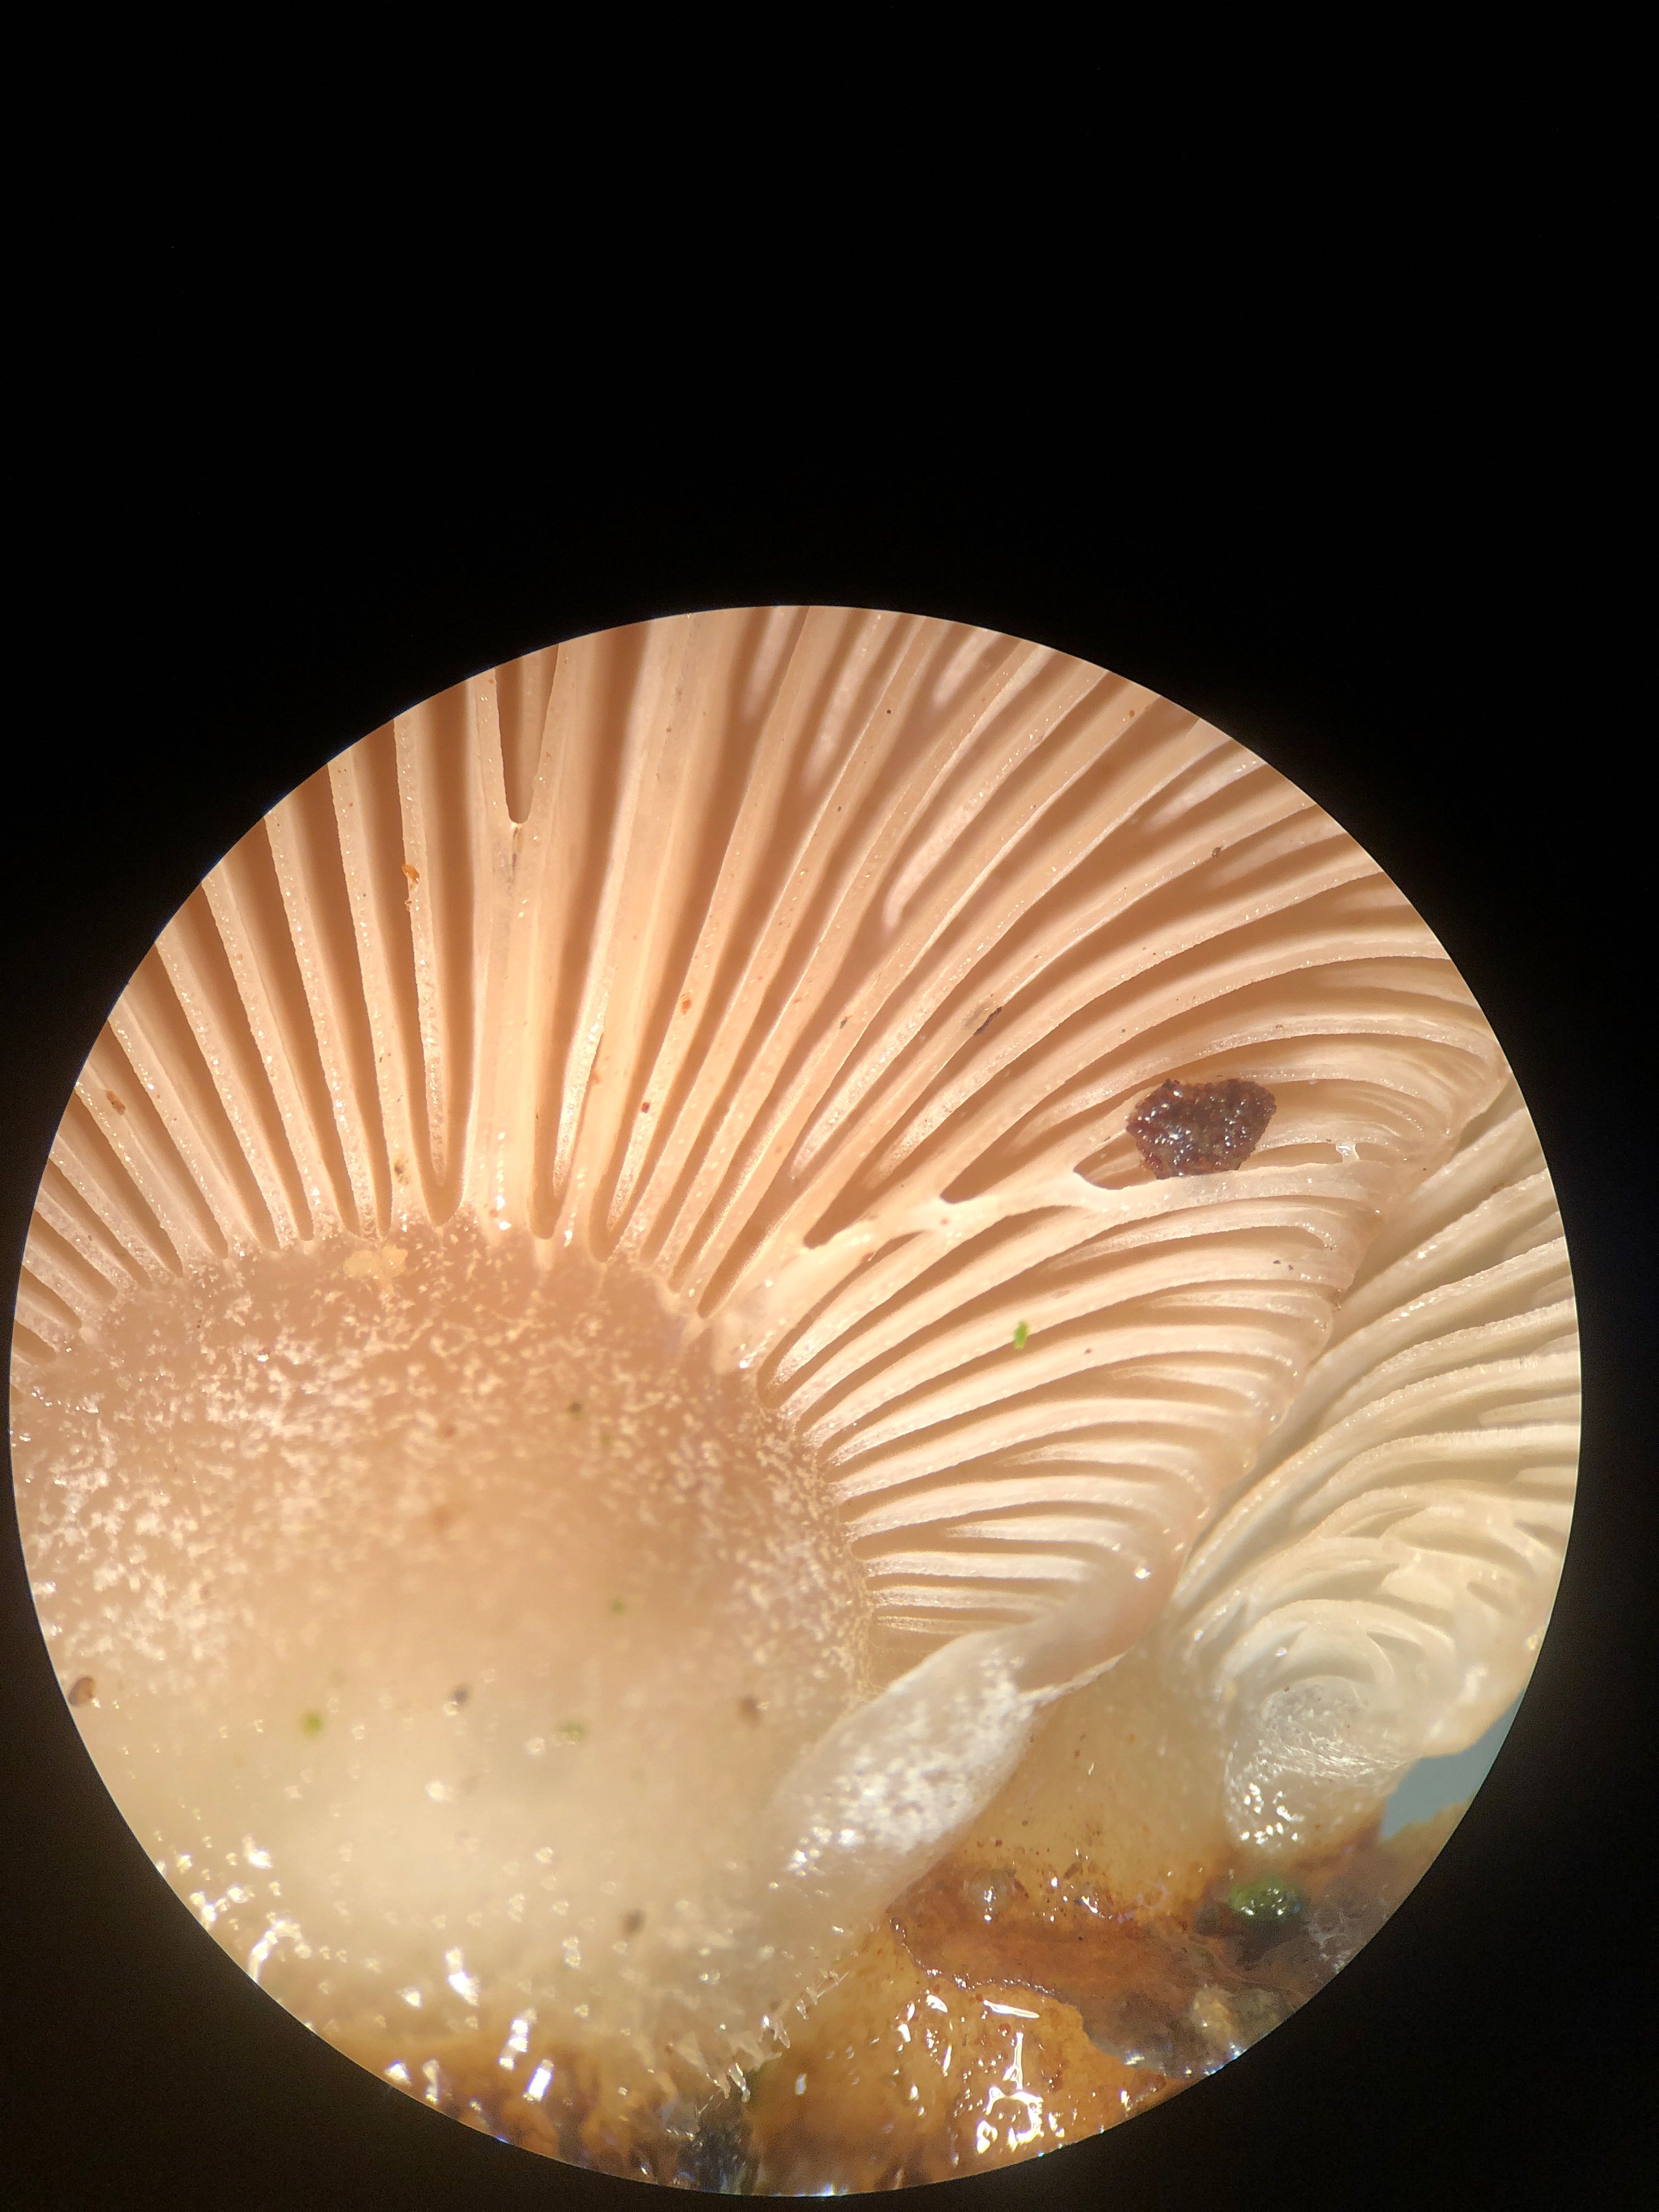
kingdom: Fungi
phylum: Basidiomycota
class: Agaricomycetes
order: Agaricales
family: Mycenaceae
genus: Panellus
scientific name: Panellus mitis
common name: mild epaulethat
